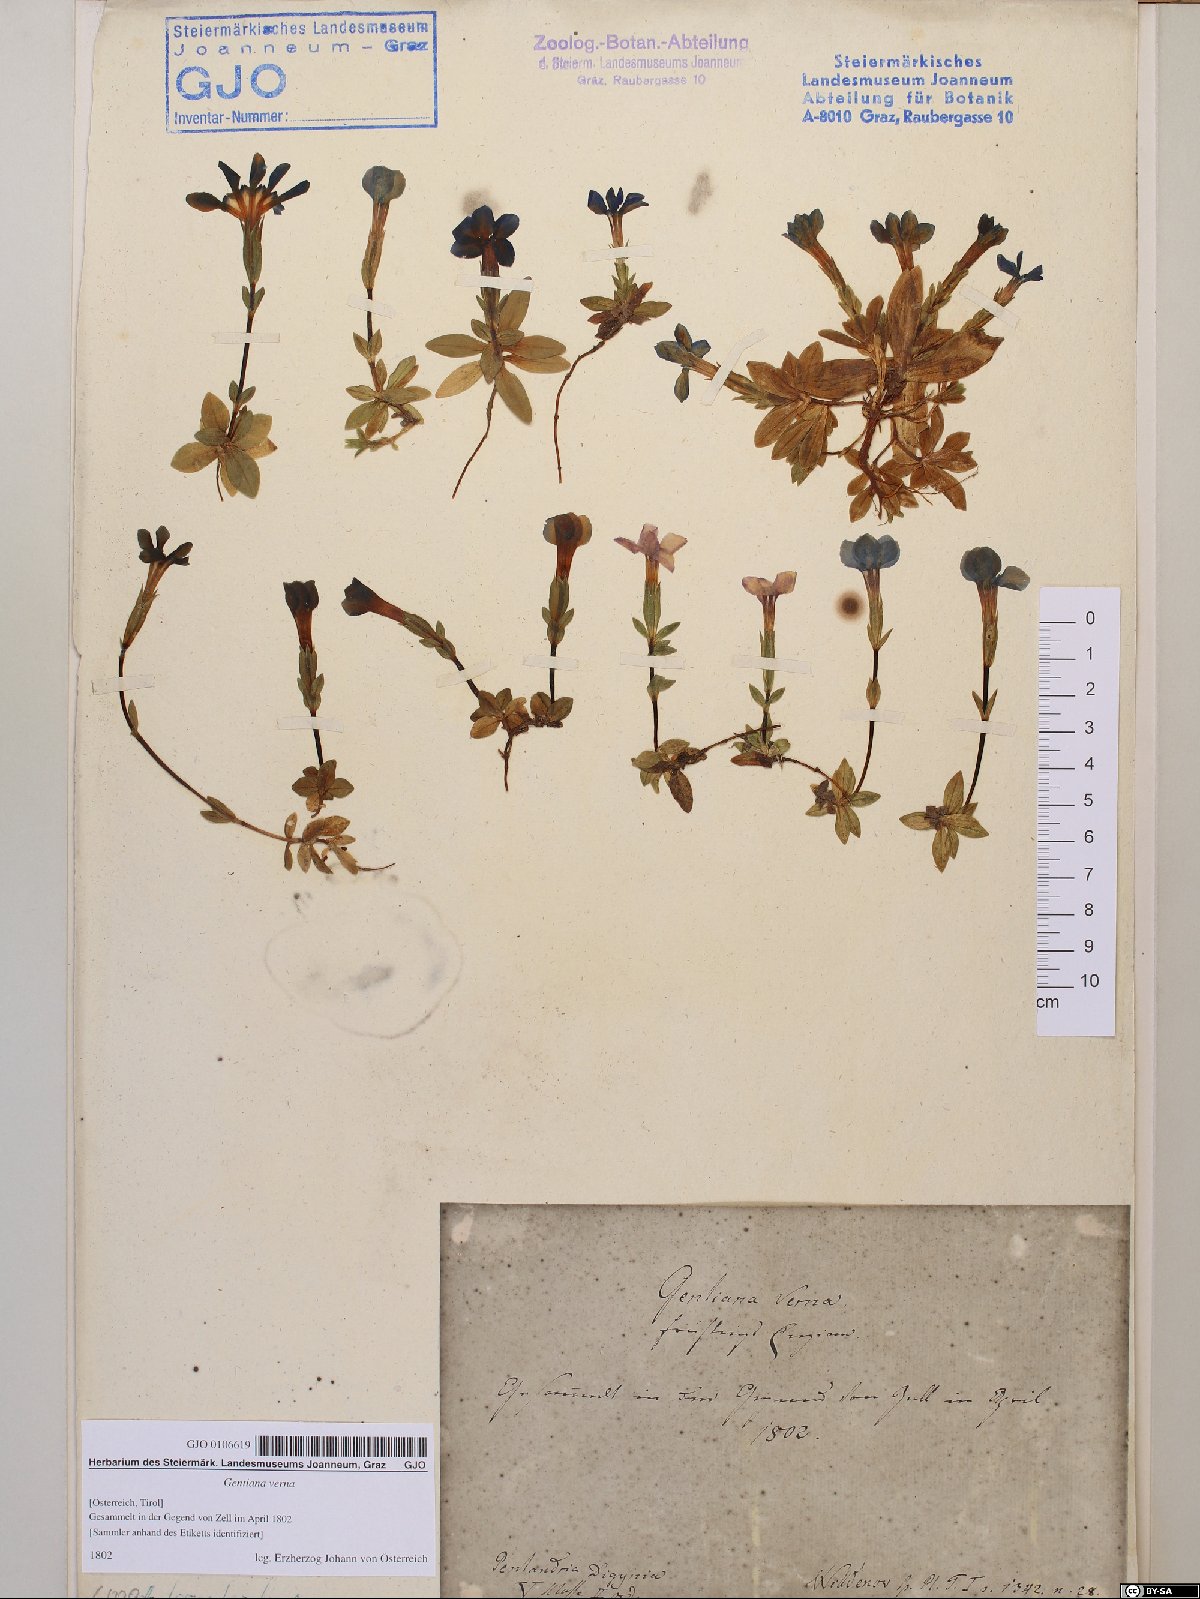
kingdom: Plantae
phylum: Tracheophyta
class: Magnoliopsida
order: Gentianales
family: Gentianaceae
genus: Gentiana
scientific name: Gentiana verna
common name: Spring gentian
